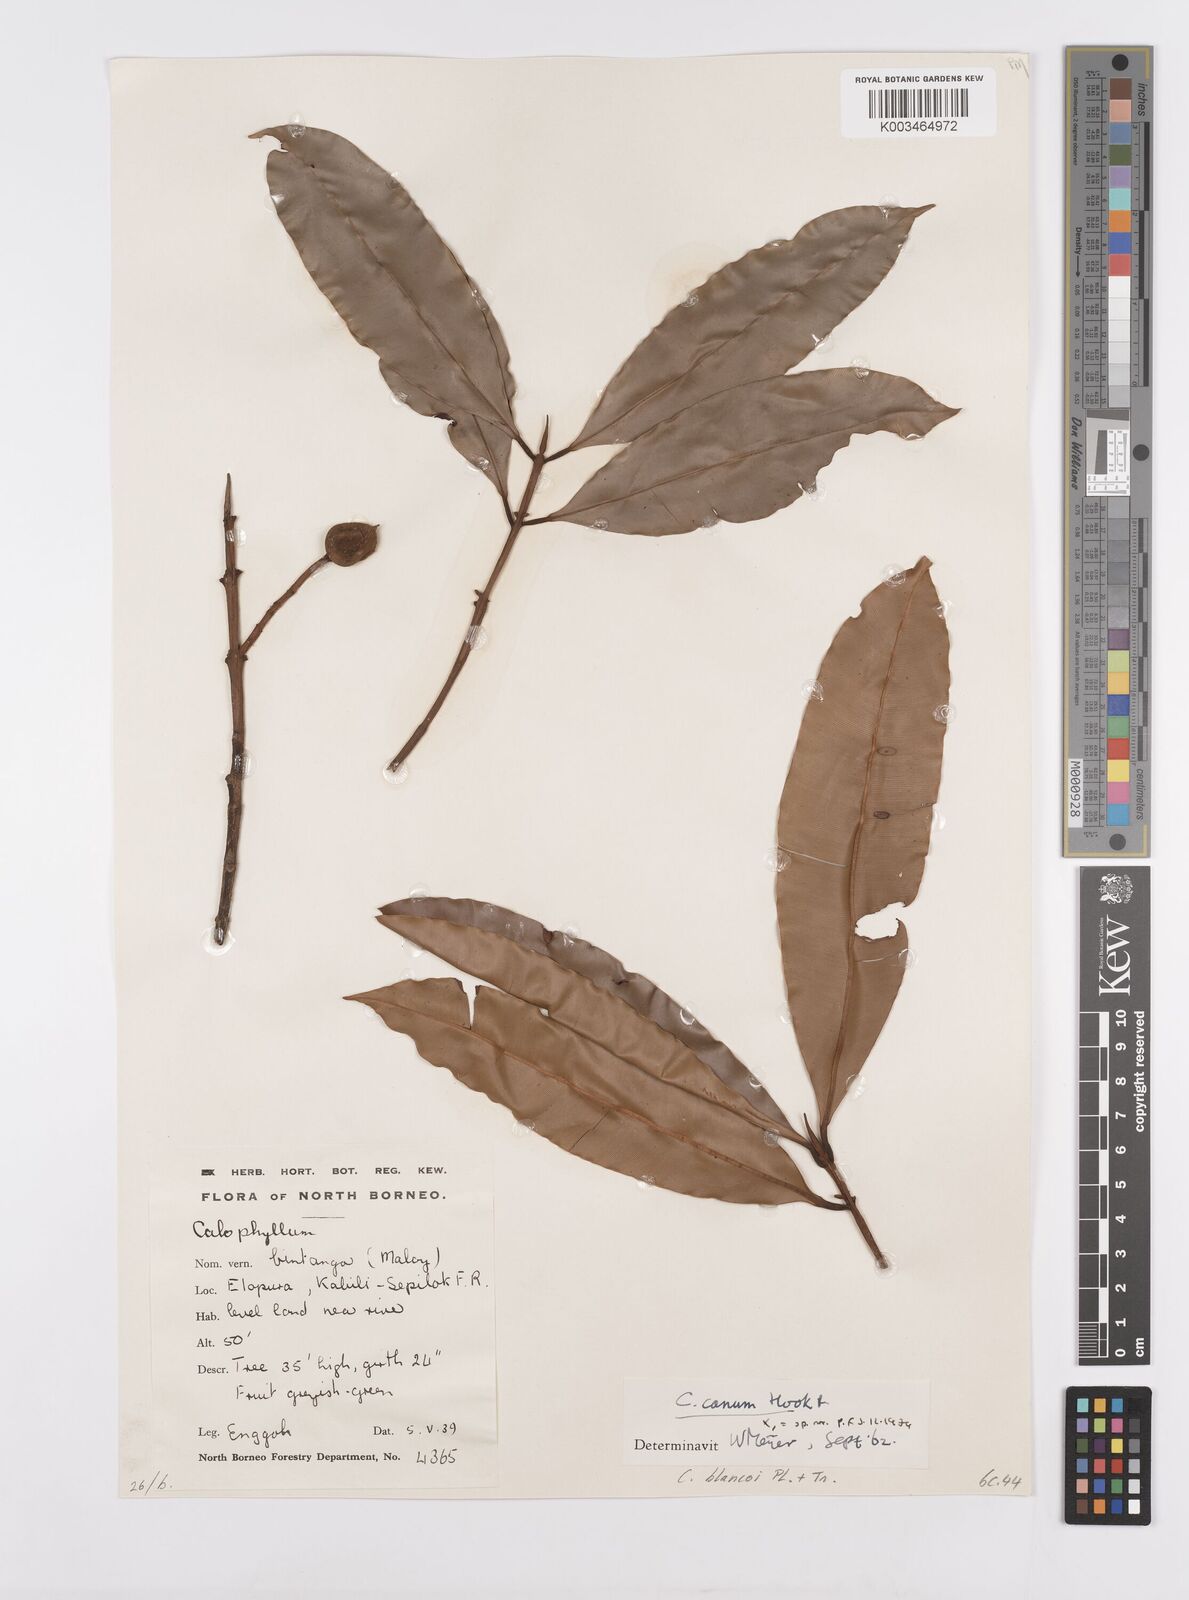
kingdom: Plantae
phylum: Tracheophyta
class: Magnoliopsida
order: Malpighiales
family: Calophyllaceae
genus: Calophyllum
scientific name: Calophyllum blancoi
